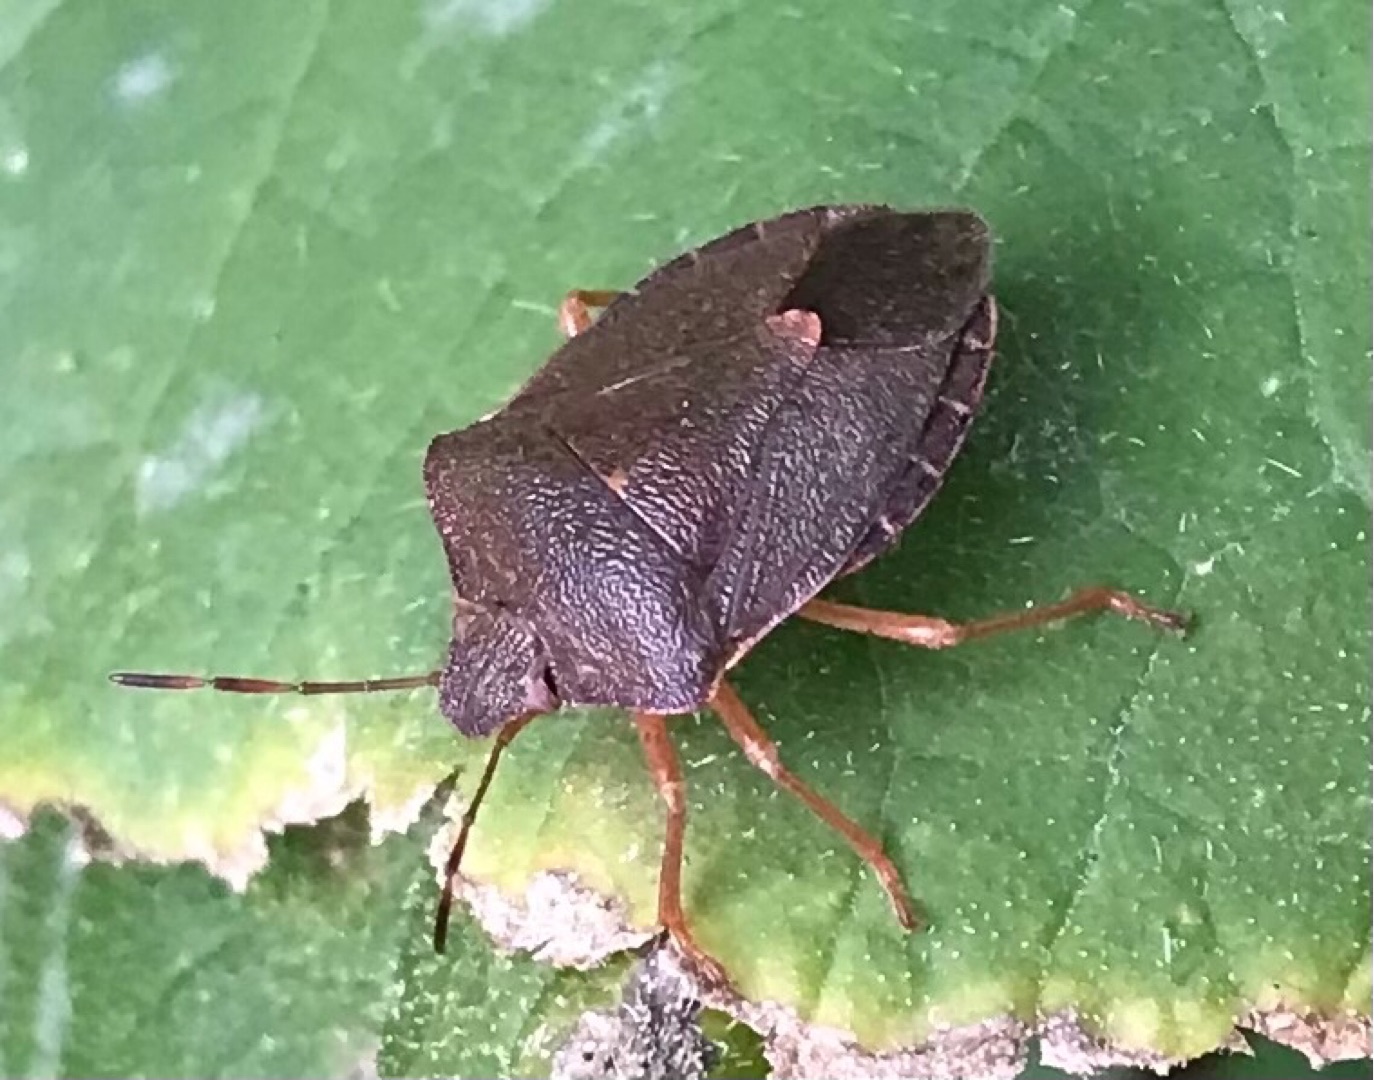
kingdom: Animalia
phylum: Arthropoda
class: Insecta
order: Hemiptera
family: Pentatomidae
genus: Palomena
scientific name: Palomena prasina
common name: Grøn bredtæge
